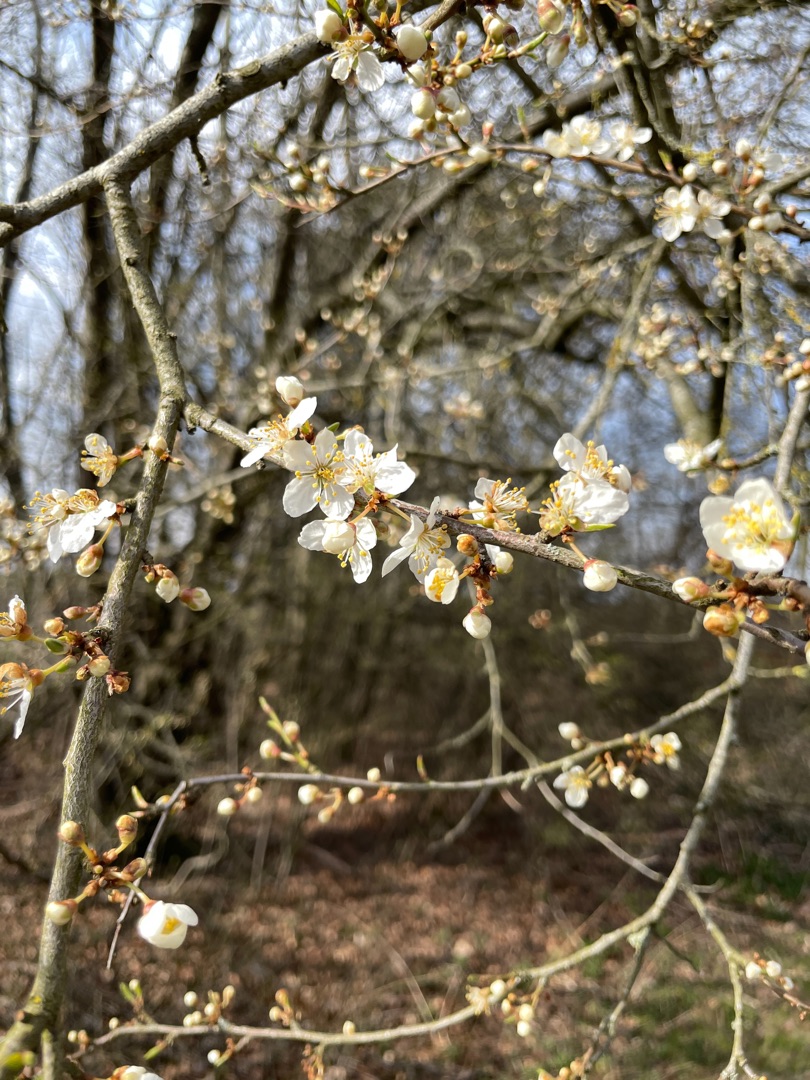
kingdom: Plantae
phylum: Tracheophyta
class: Magnoliopsida
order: Rosales
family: Rosaceae
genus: Prunus
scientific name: Prunus cerasifera
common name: Mirabel
